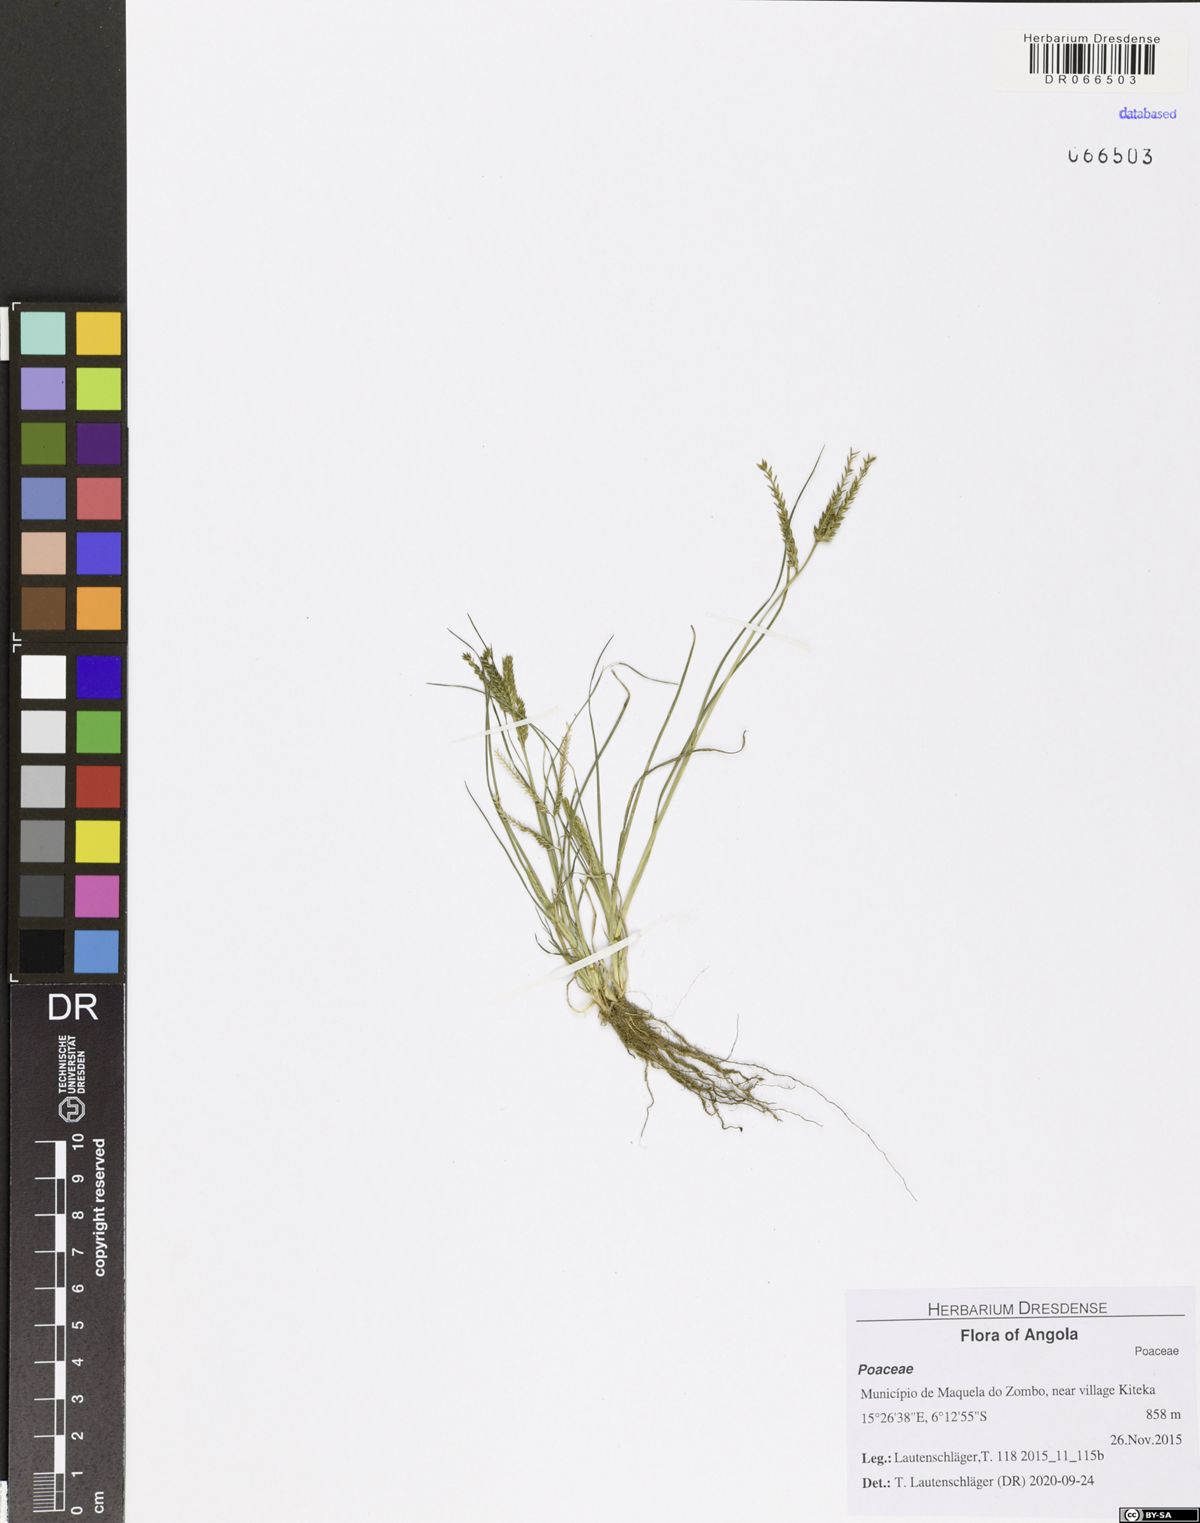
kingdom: Plantae
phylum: Tracheophyta
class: Liliopsida
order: Poales
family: Poaceae
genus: Eleusine
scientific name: Eleusine indica
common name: Yard-grass
